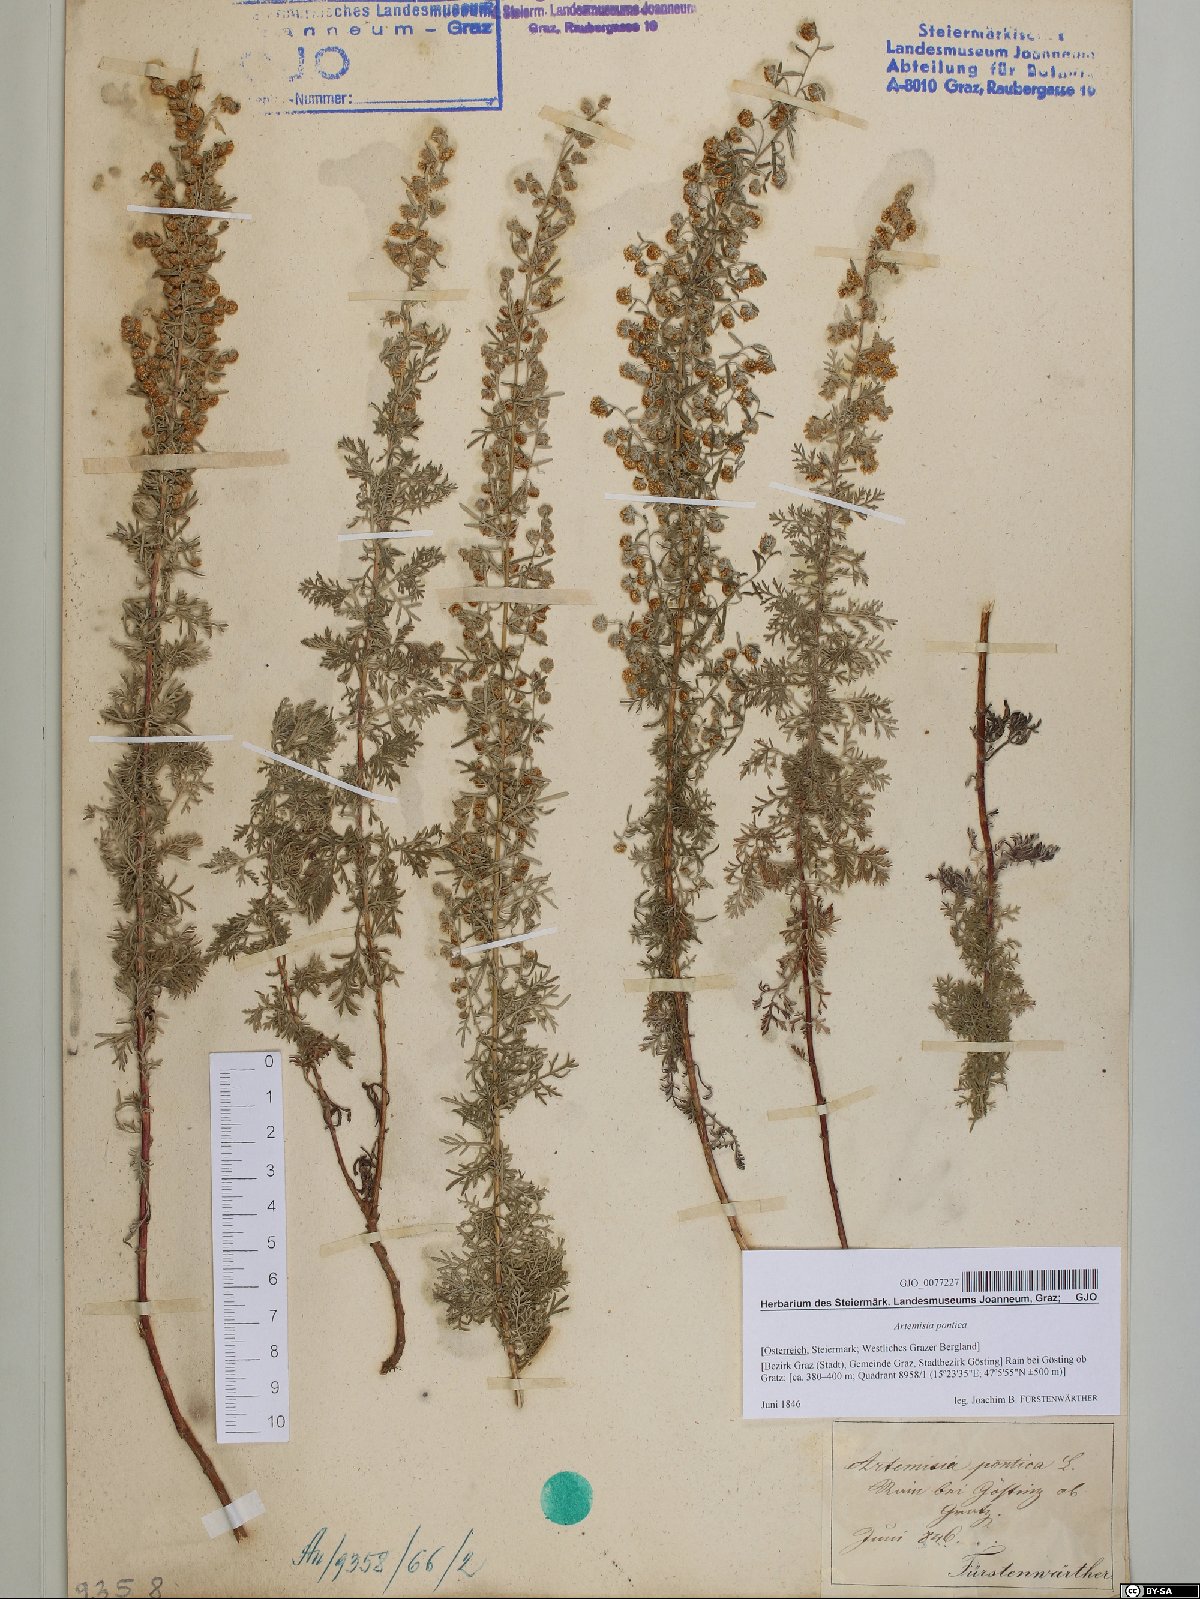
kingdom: Plantae
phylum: Tracheophyta
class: Magnoliopsida
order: Asterales
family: Asteraceae
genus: Artemisia
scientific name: Artemisia pontica
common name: Roman wormwood
